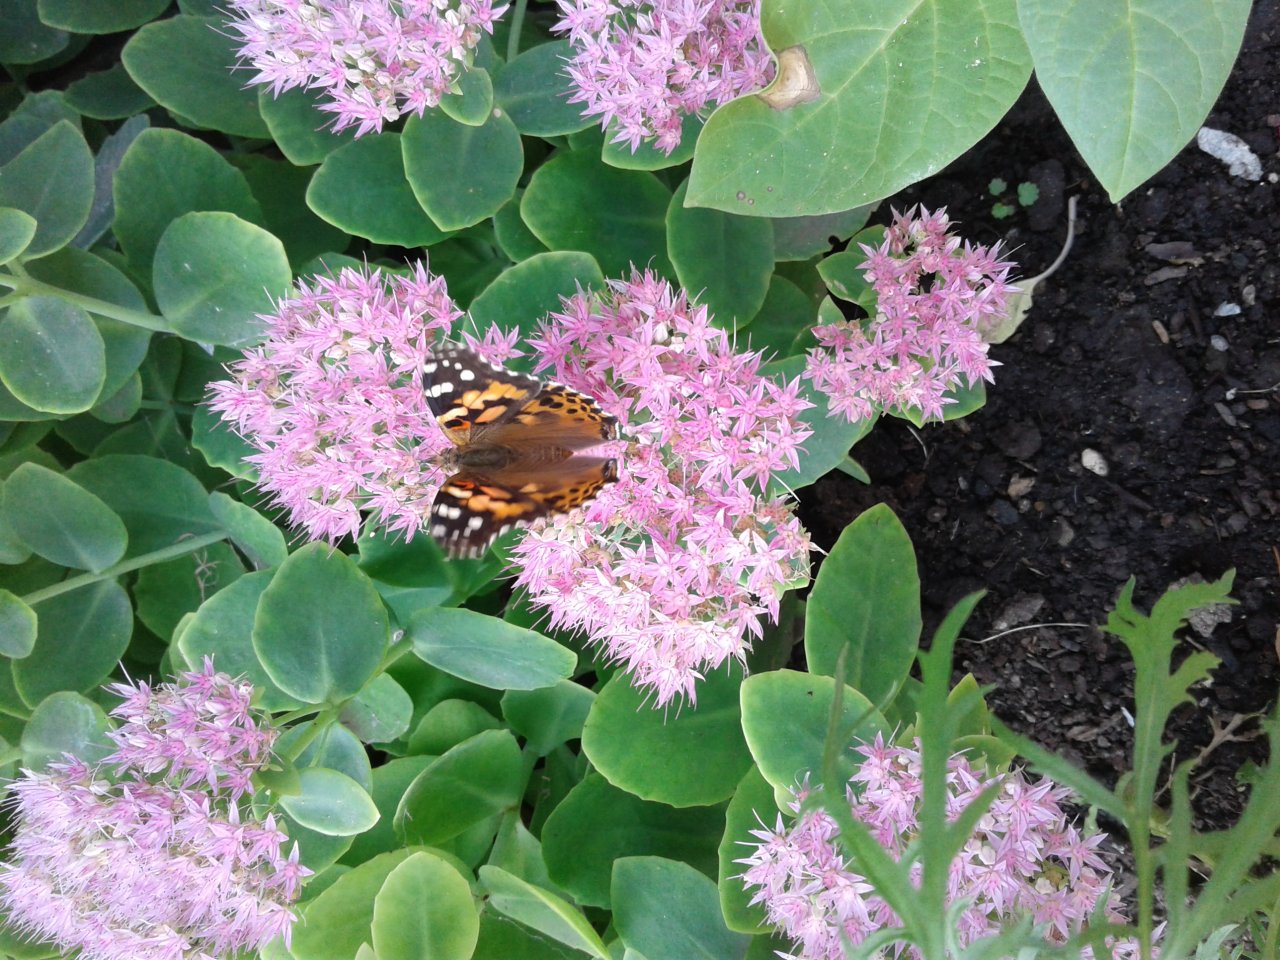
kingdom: Animalia
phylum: Arthropoda
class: Insecta
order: Lepidoptera
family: Nymphalidae
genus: Vanessa
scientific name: Vanessa cardui
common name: Painted Lady
